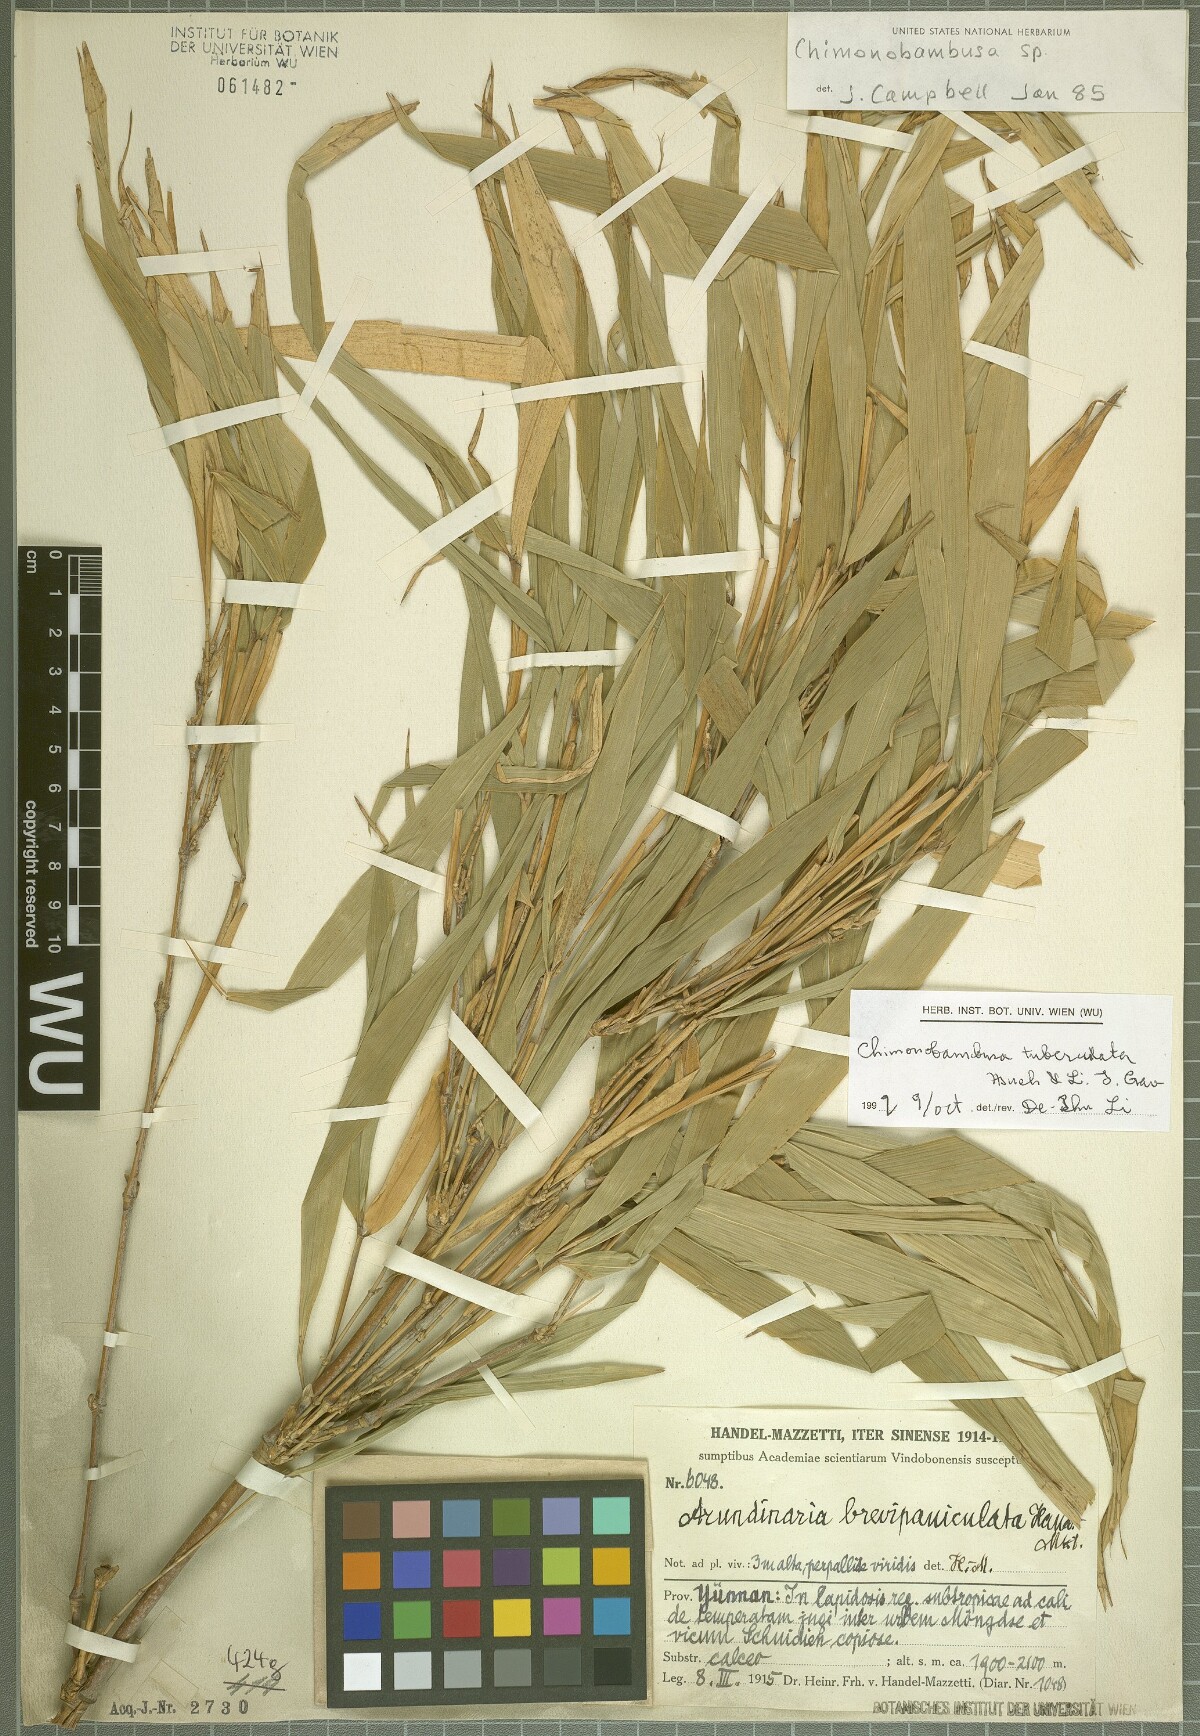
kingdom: Plantae
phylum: Tracheophyta
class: Liliopsida
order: Poales
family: Poaceae
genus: Chimonobambusa
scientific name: Chimonobambusa tuberculata
